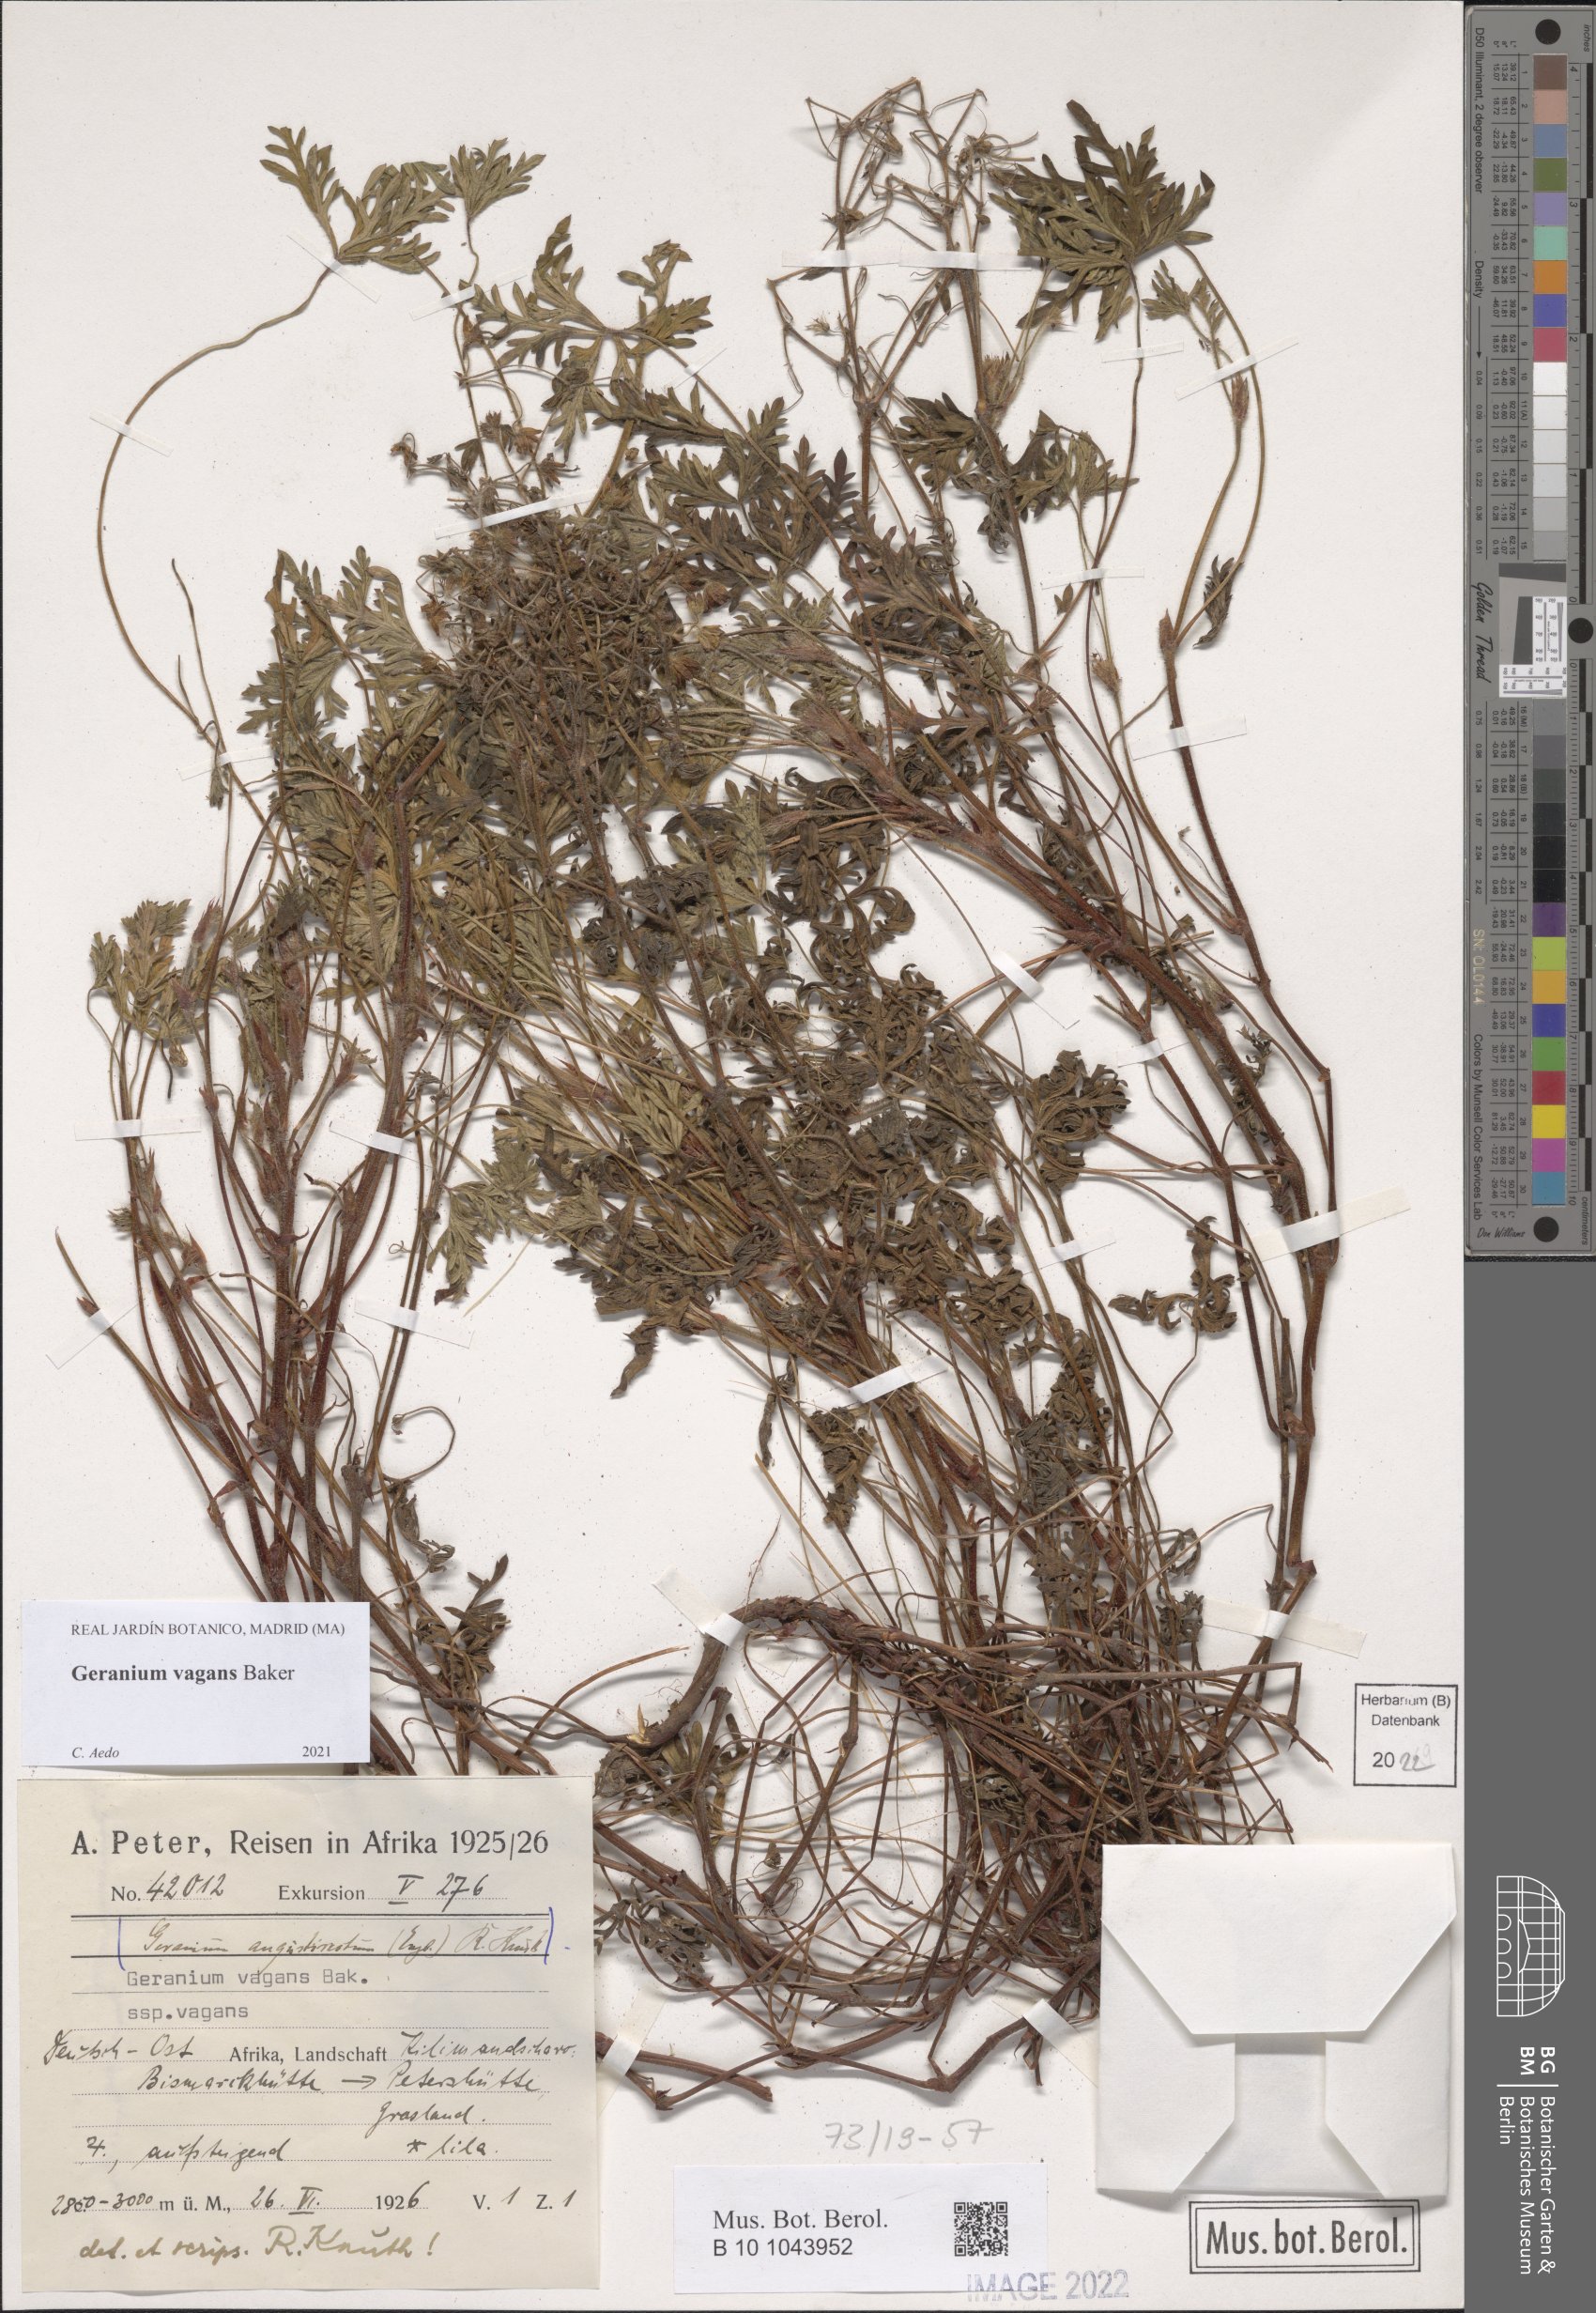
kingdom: Plantae
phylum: Tracheophyta
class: Magnoliopsida
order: Geraniales
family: Geraniaceae
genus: Geranium
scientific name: Geranium vagans
